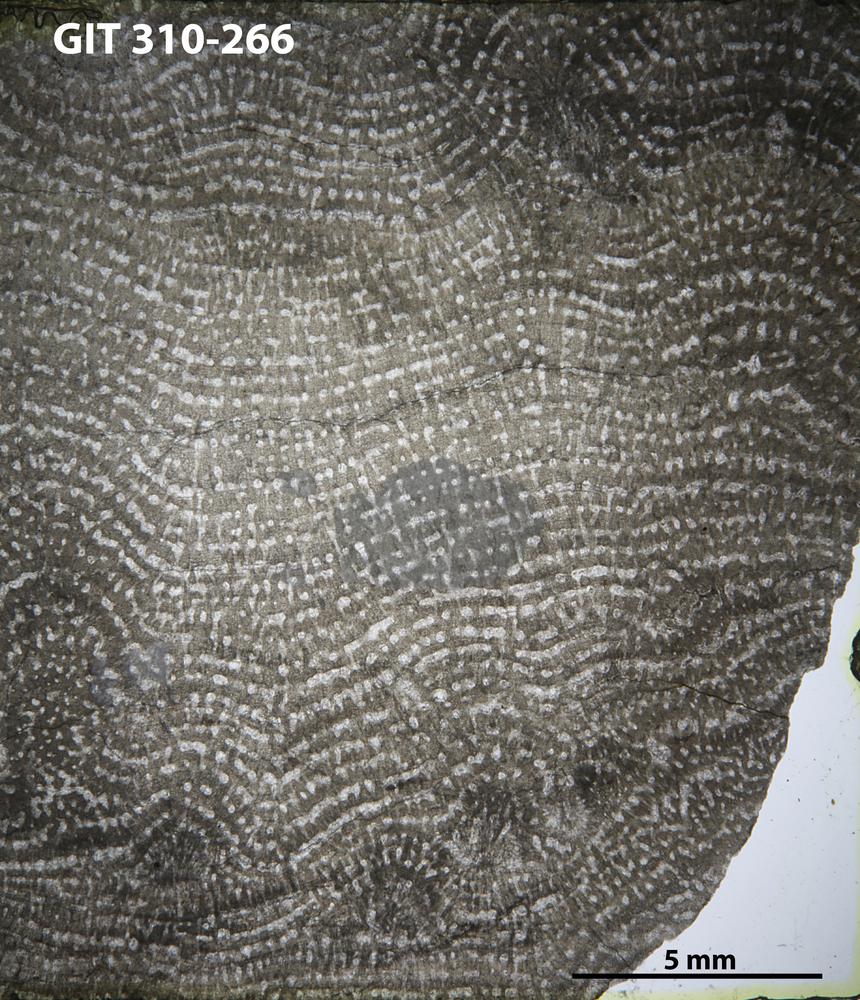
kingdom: Animalia
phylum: Porifera
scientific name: Porifera
